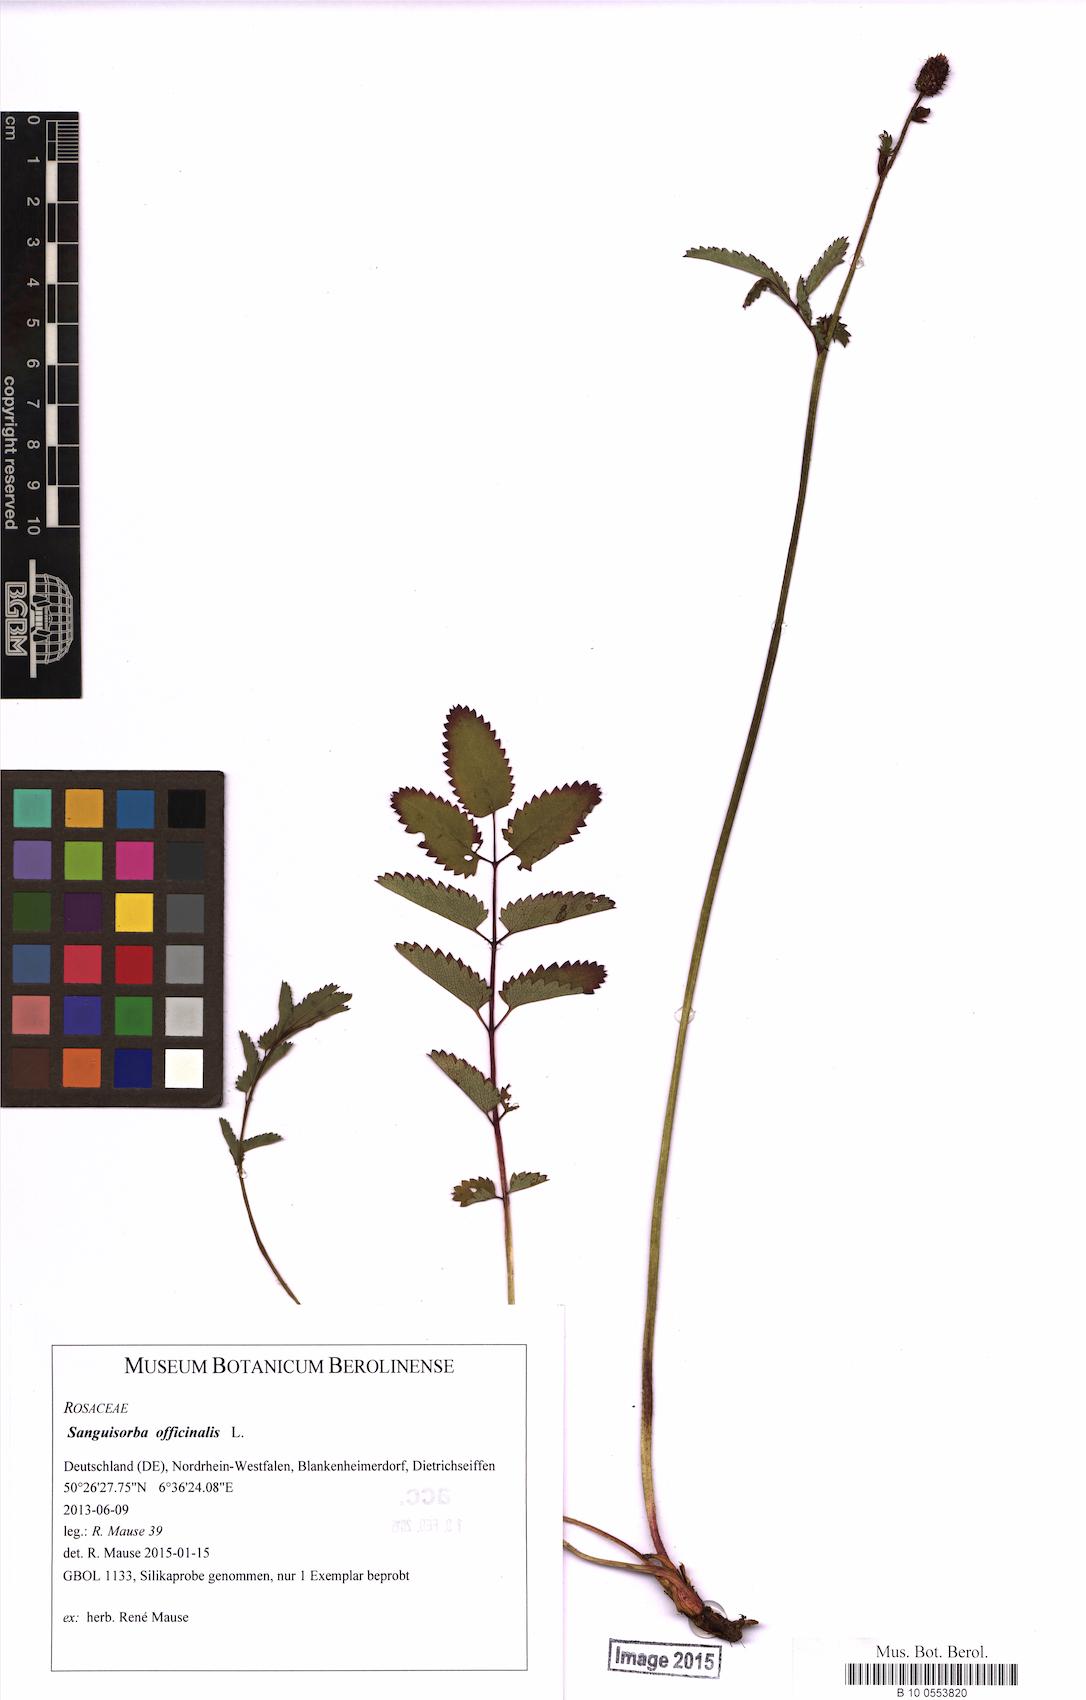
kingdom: Plantae
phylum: Tracheophyta
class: Magnoliopsida
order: Rosales
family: Rosaceae
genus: Sanguisorba
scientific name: Sanguisorba officinalis
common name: Great burnet
